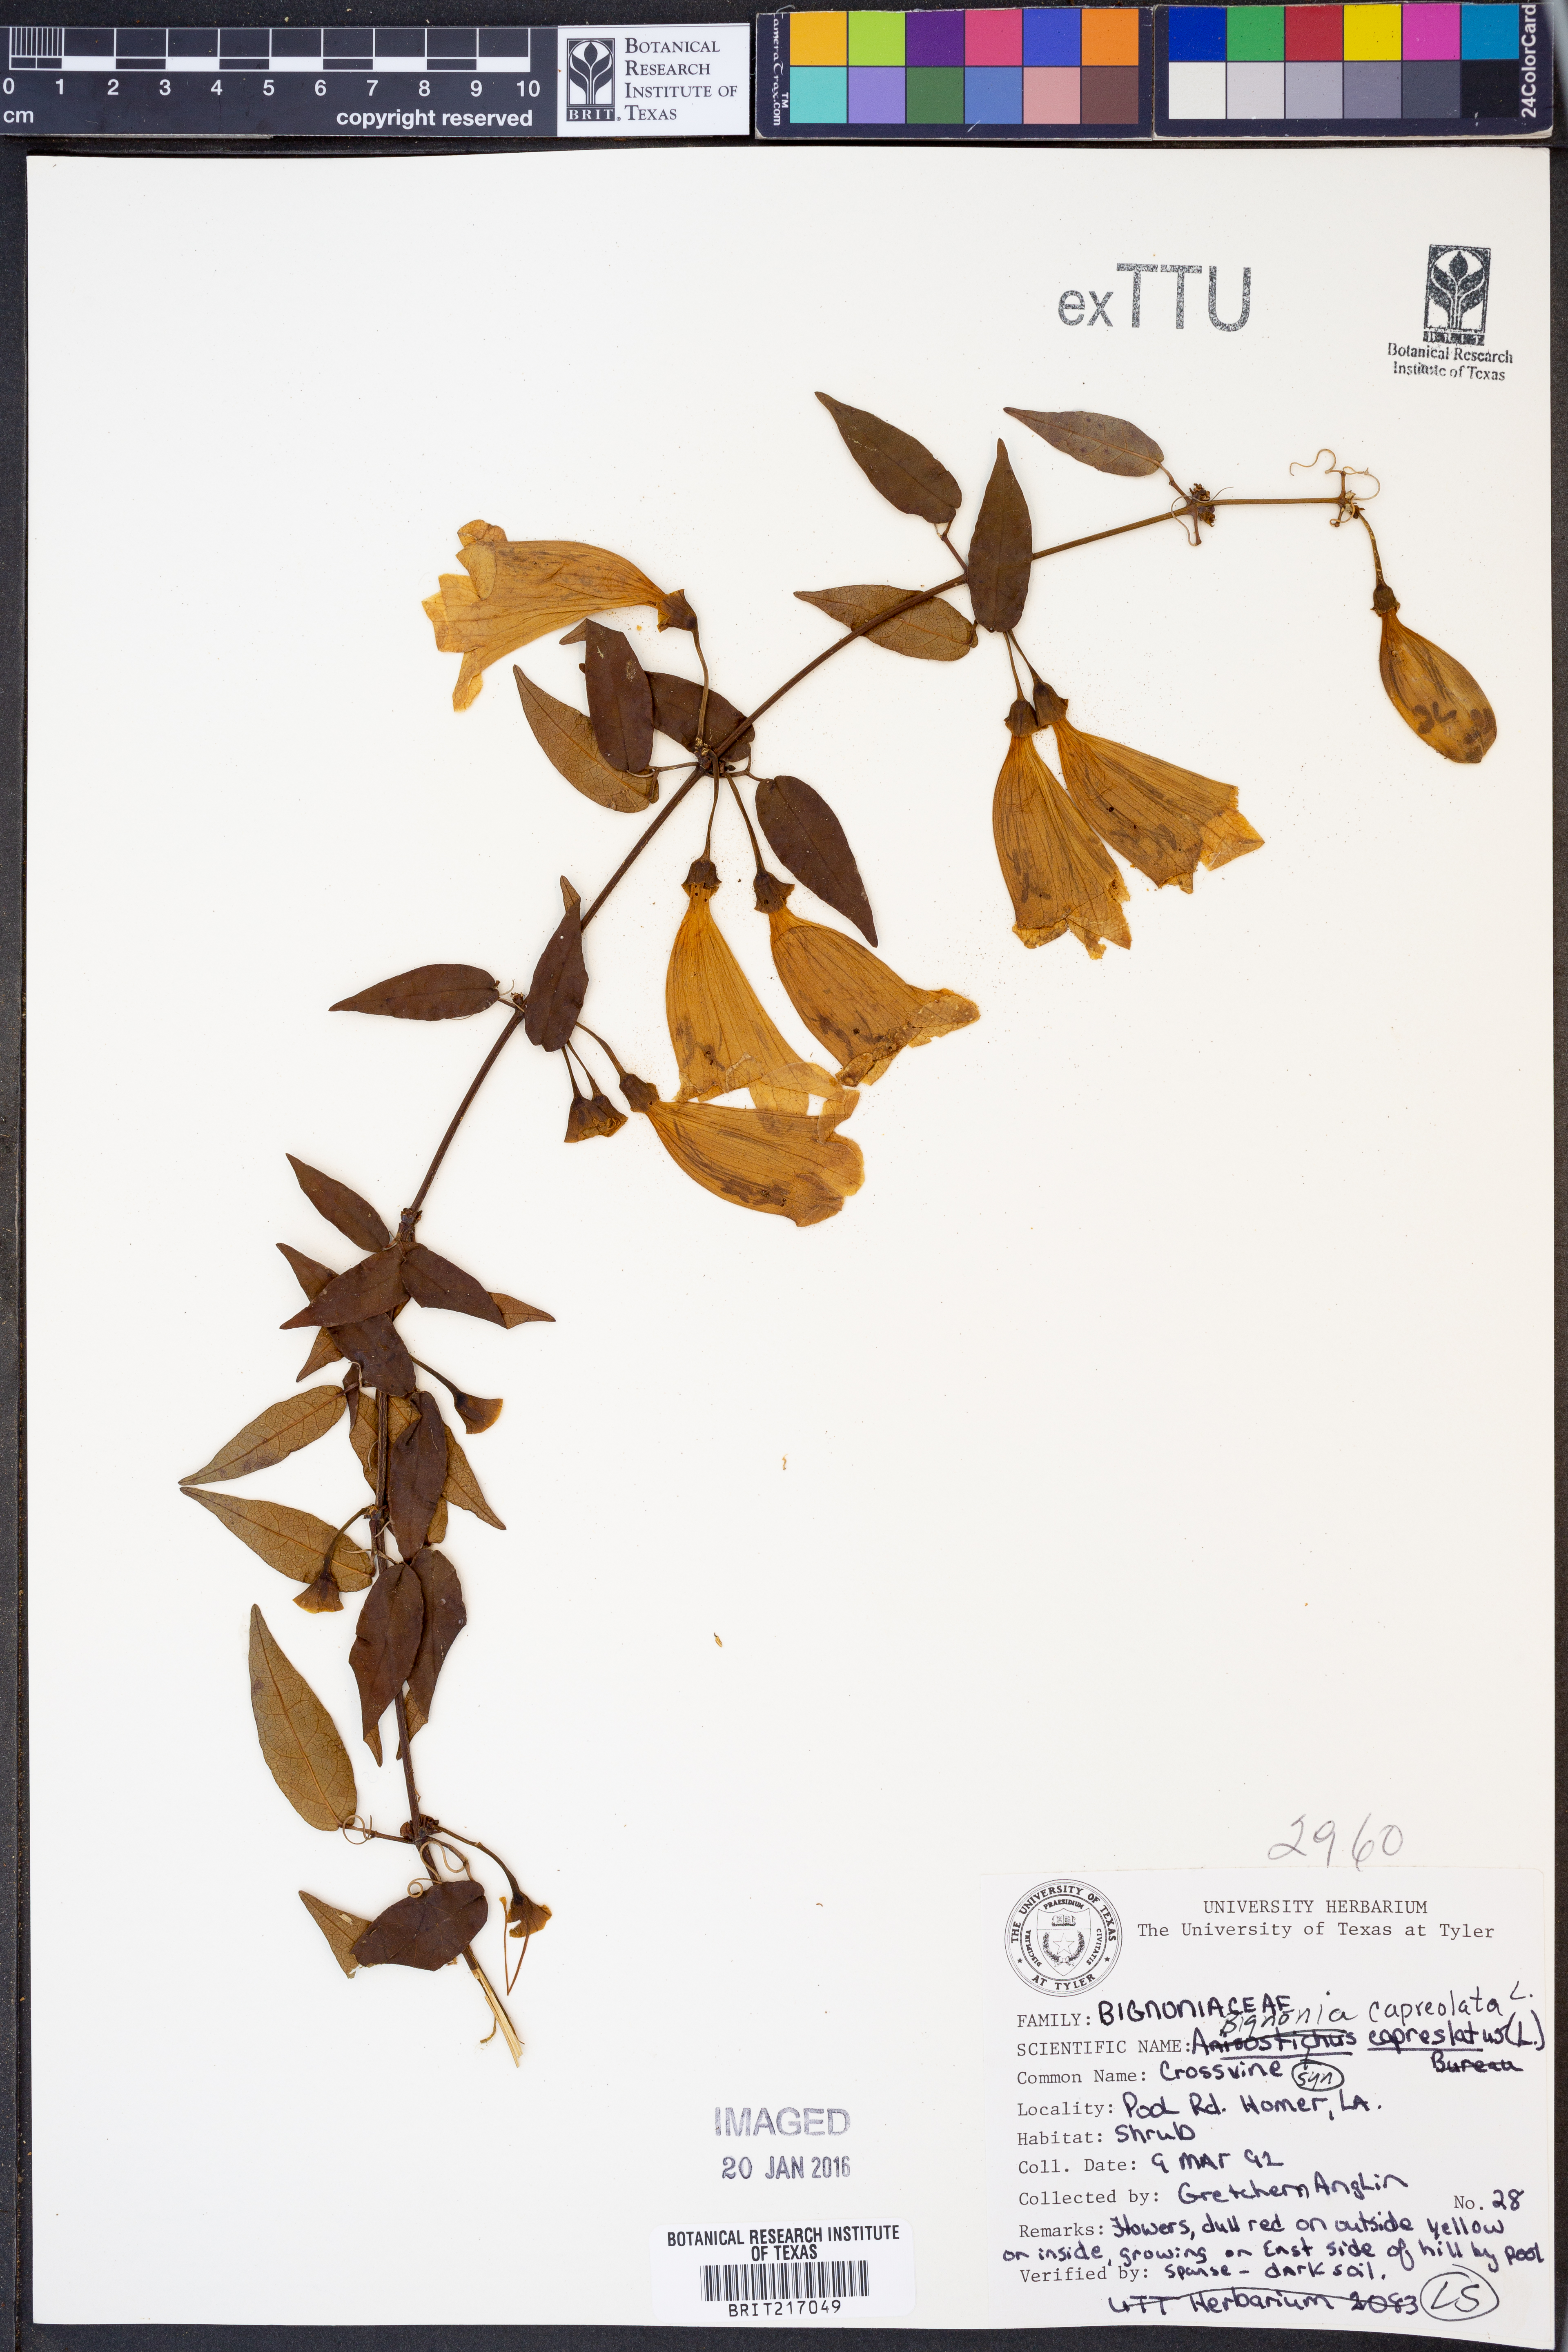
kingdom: Plantae
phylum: Tracheophyta
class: Magnoliopsida
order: Lamiales
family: Bignoniaceae
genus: Bignonia
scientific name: Bignonia capreolata
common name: Crossvine
